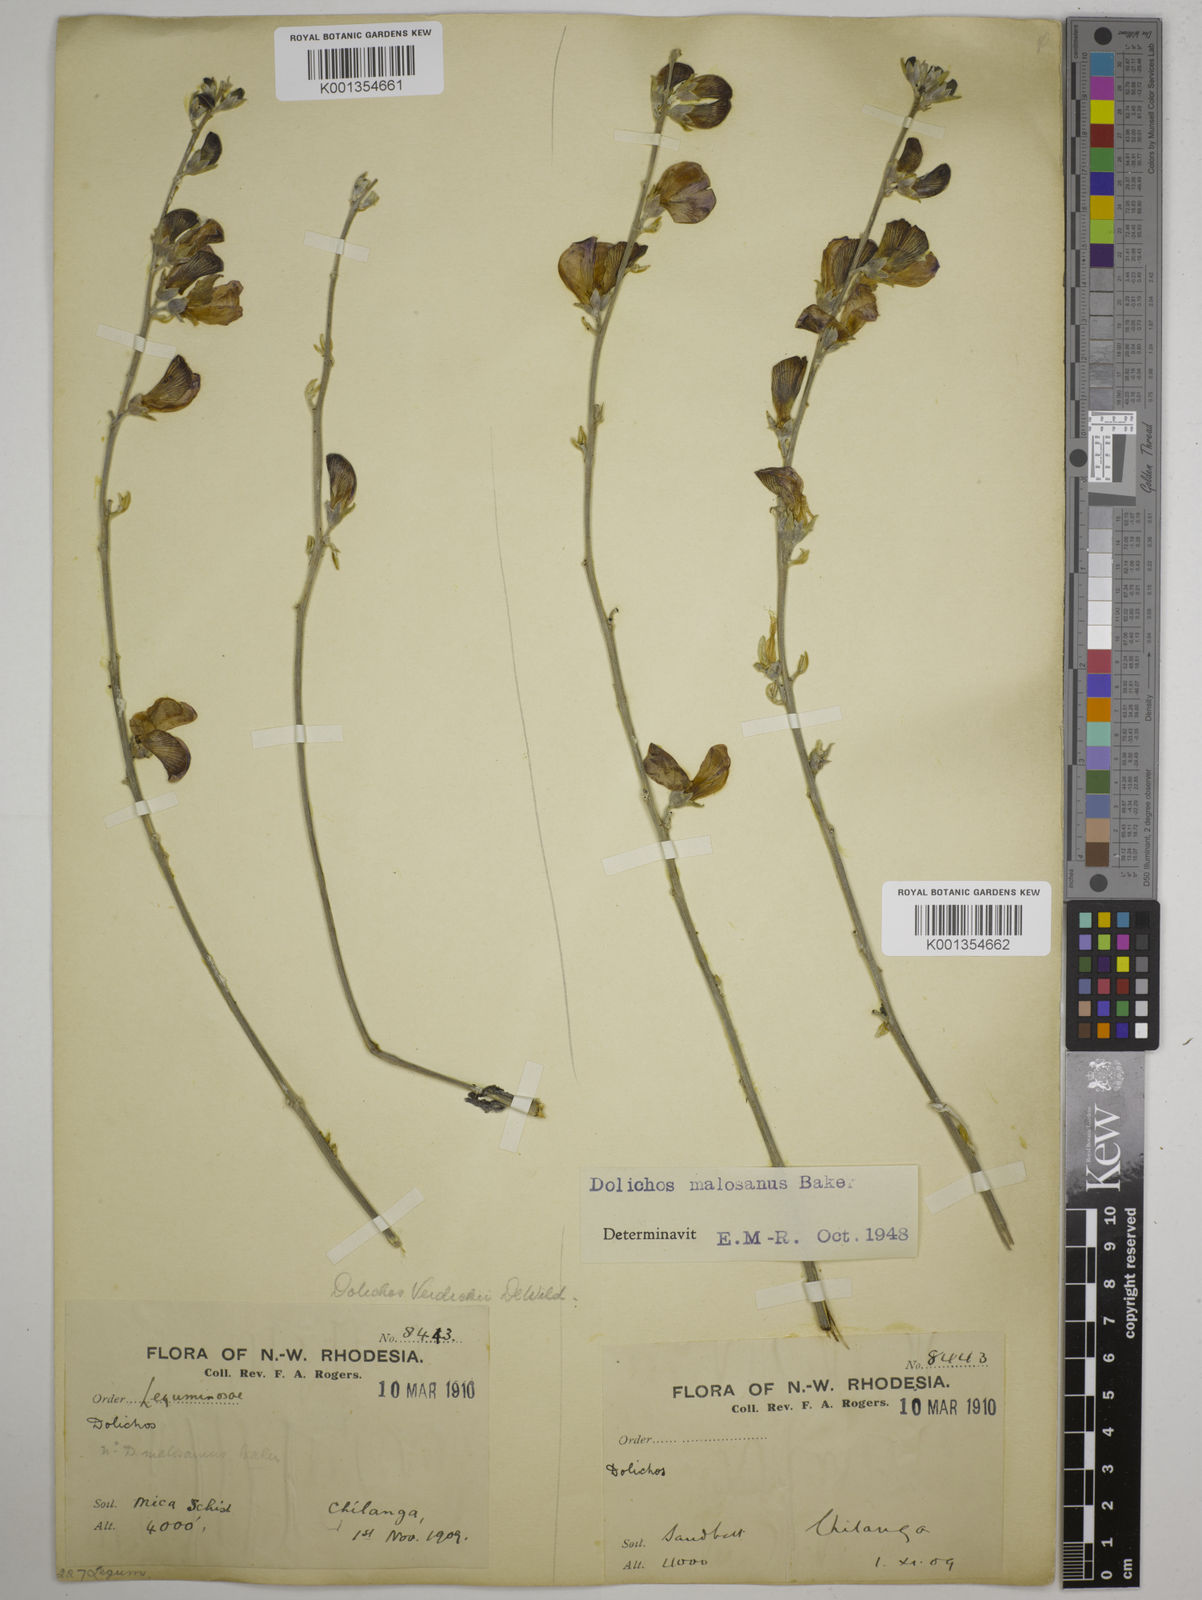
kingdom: Plantae
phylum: Tracheophyta
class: Magnoliopsida
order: Fabales
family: Fabaceae
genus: Dolichos
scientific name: Dolichos kilimandscharicus
